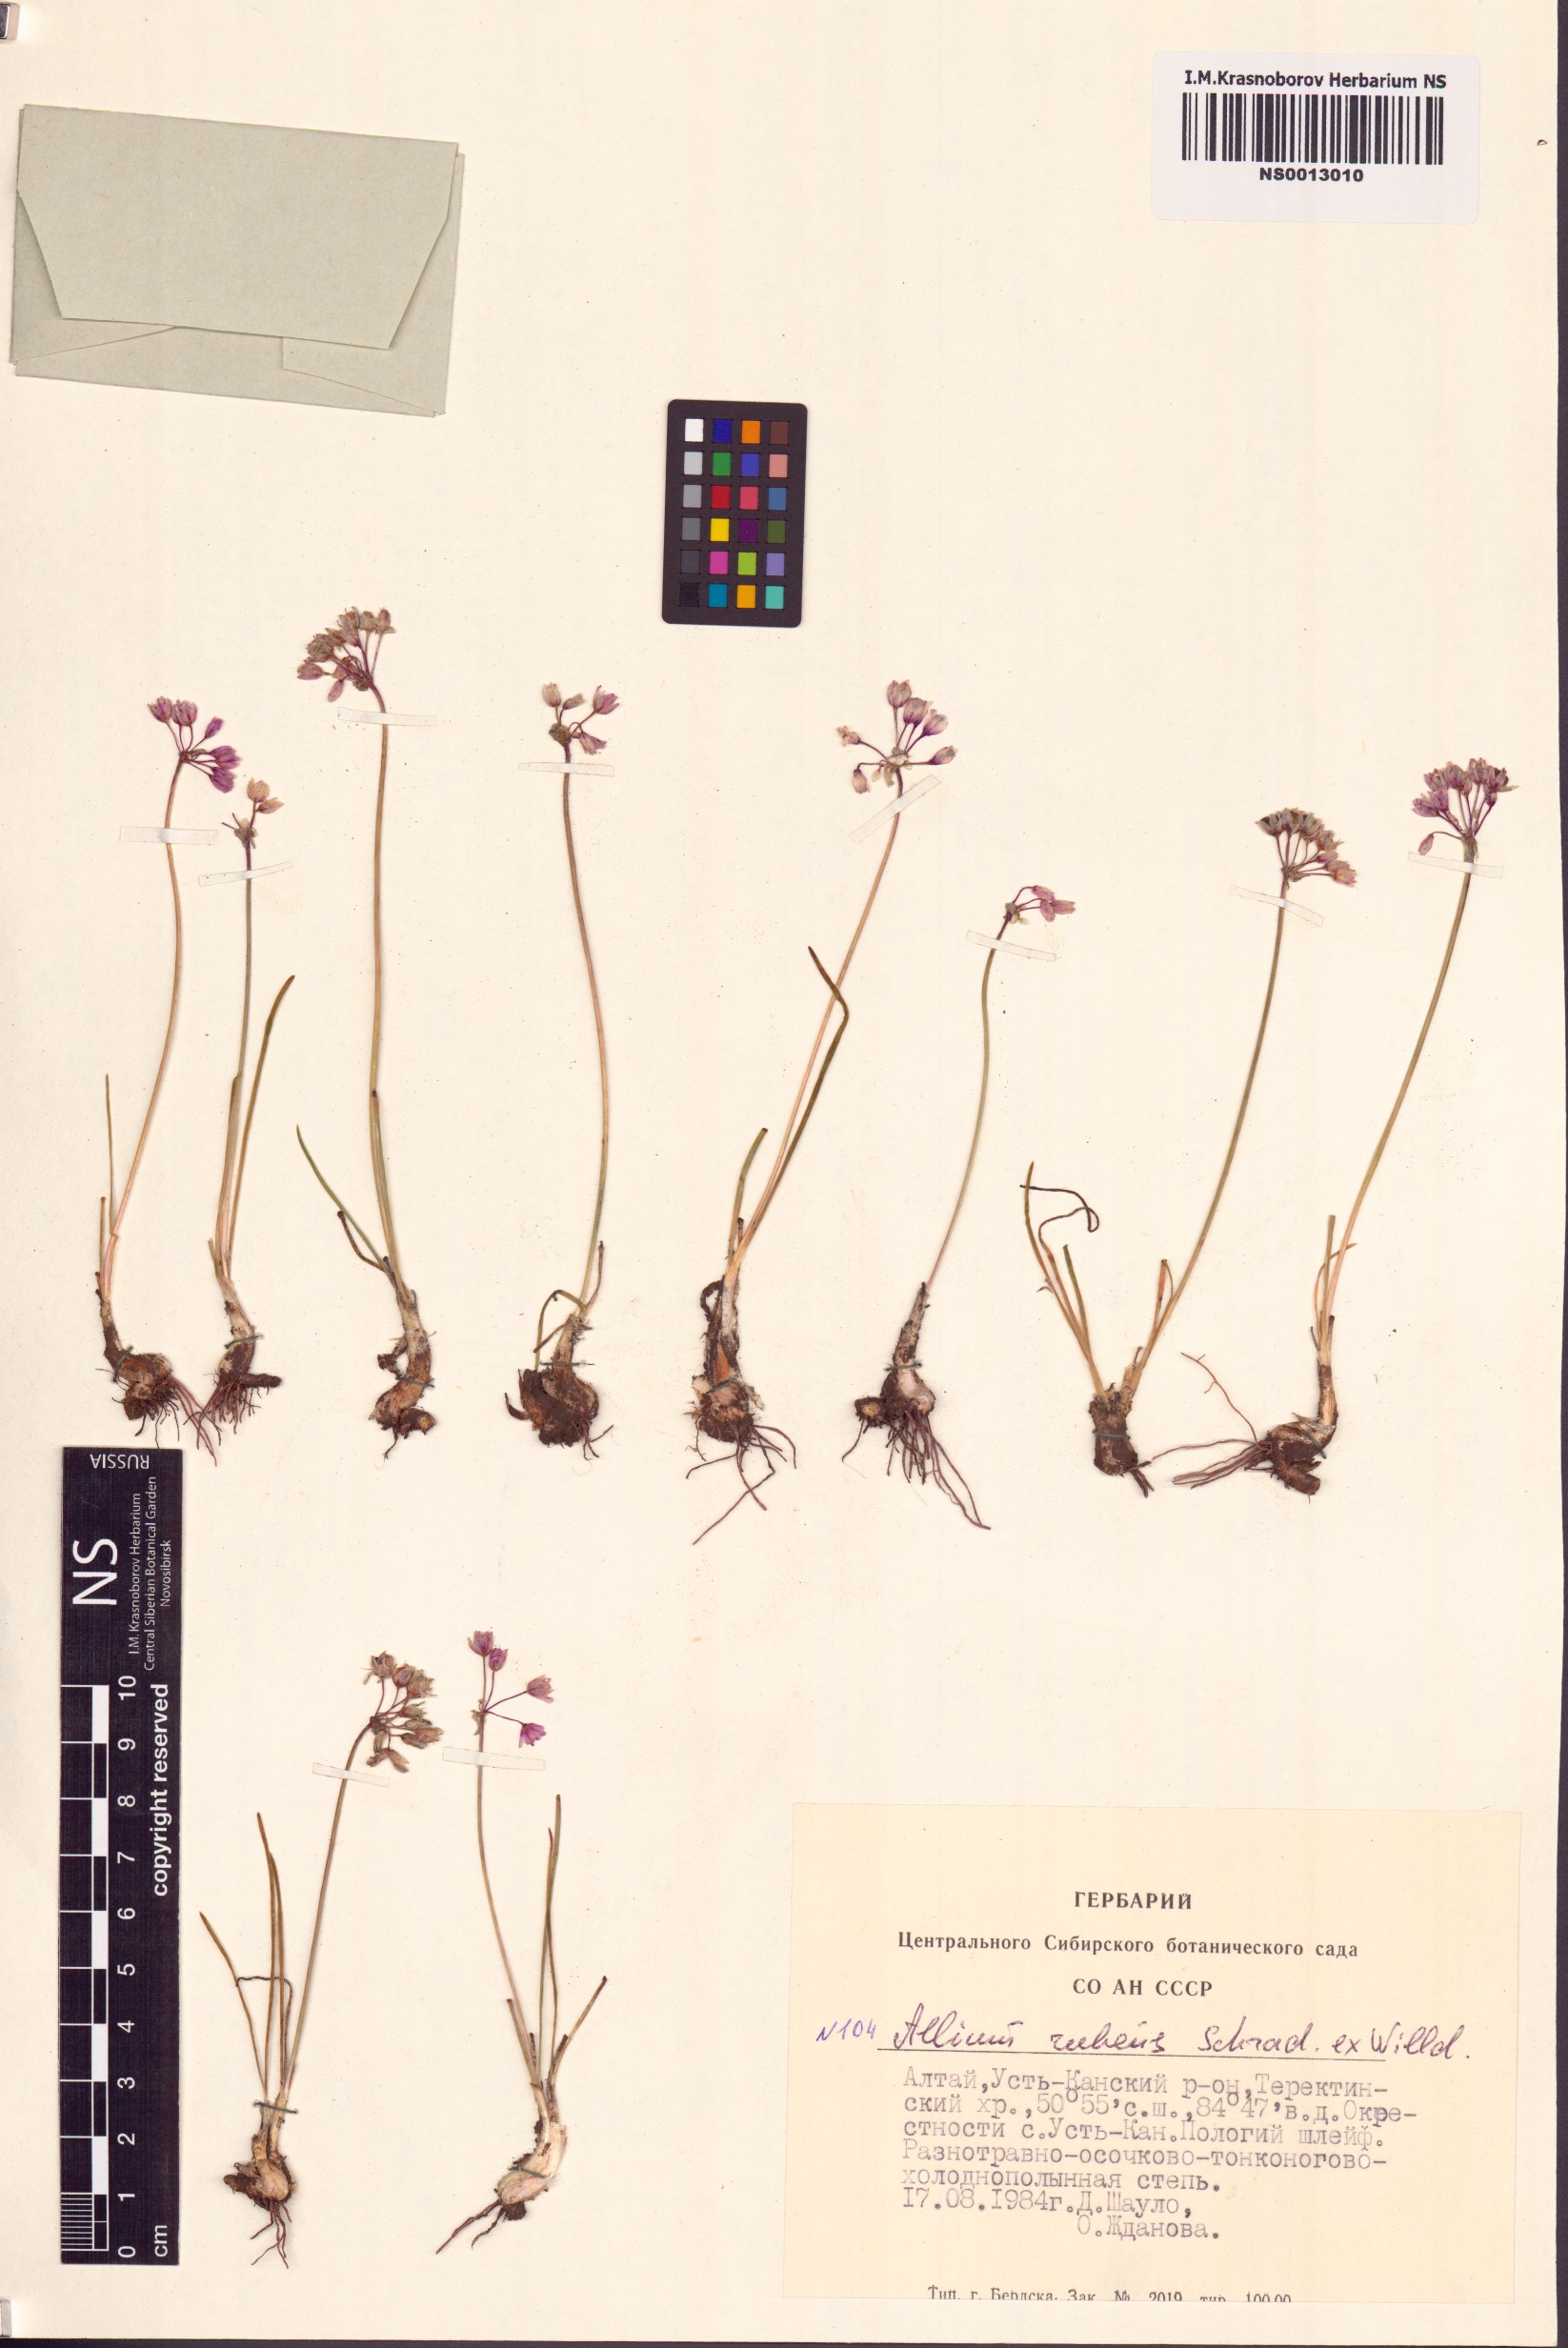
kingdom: Plantae
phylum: Tracheophyta
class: Liliopsida
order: Asparagales
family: Amaryllidaceae
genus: Allium
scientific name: Allium rubens
